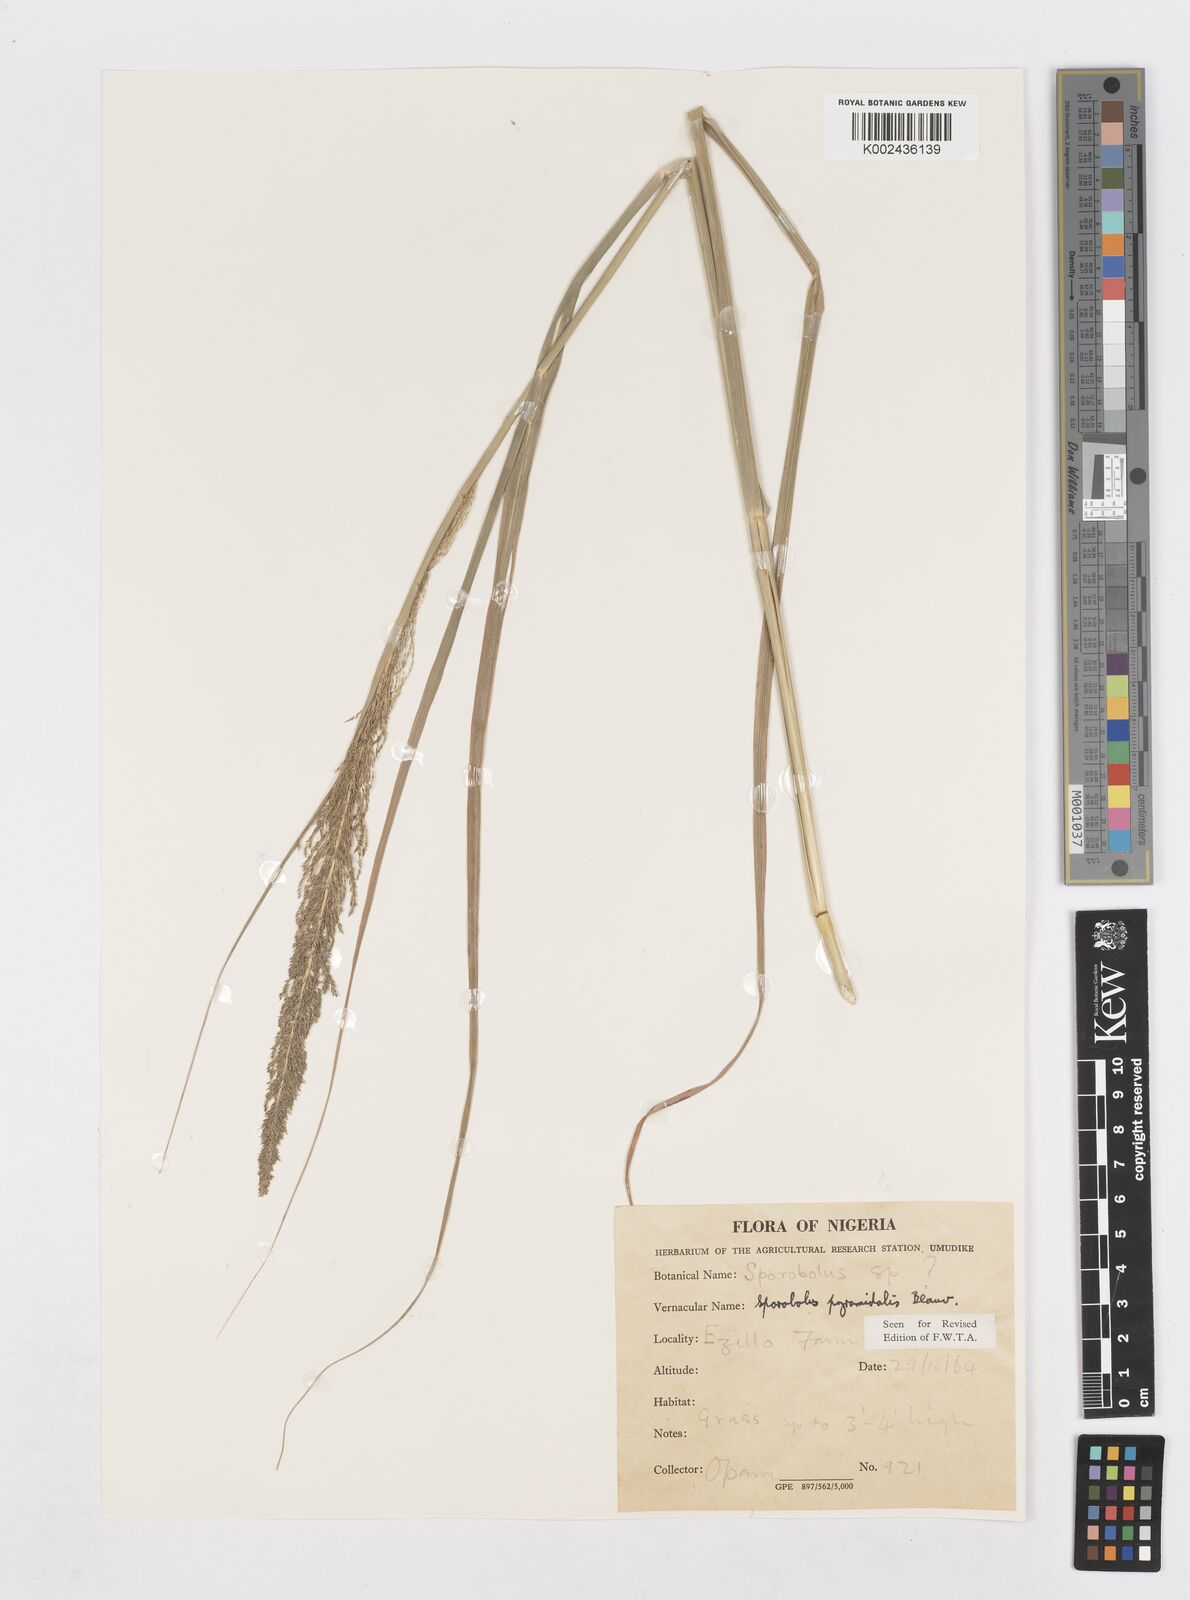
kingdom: Plantae
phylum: Tracheophyta
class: Liliopsida
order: Poales
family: Poaceae
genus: Sporobolus
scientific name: Sporobolus pyramidalis
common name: West indian dropseed
